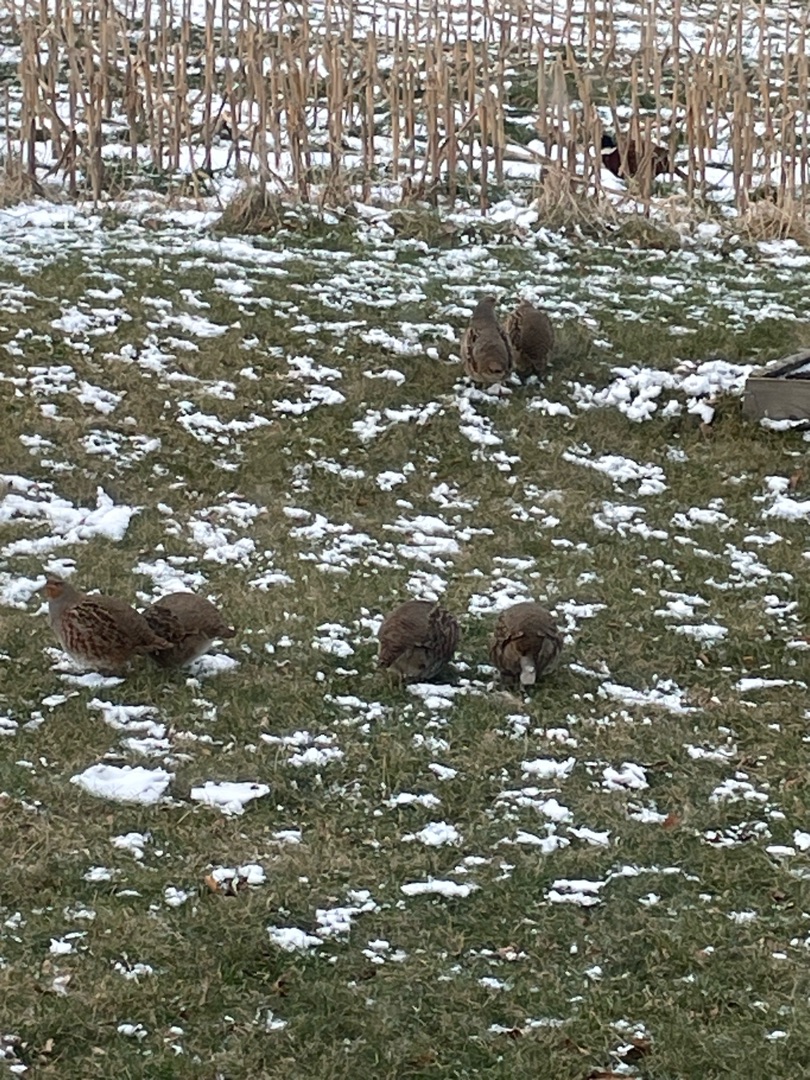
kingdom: Animalia
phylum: Chordata
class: Aves
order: Galliformes
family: Phasianidae
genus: Perdix
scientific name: Perdix perdix
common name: Agerhøne
